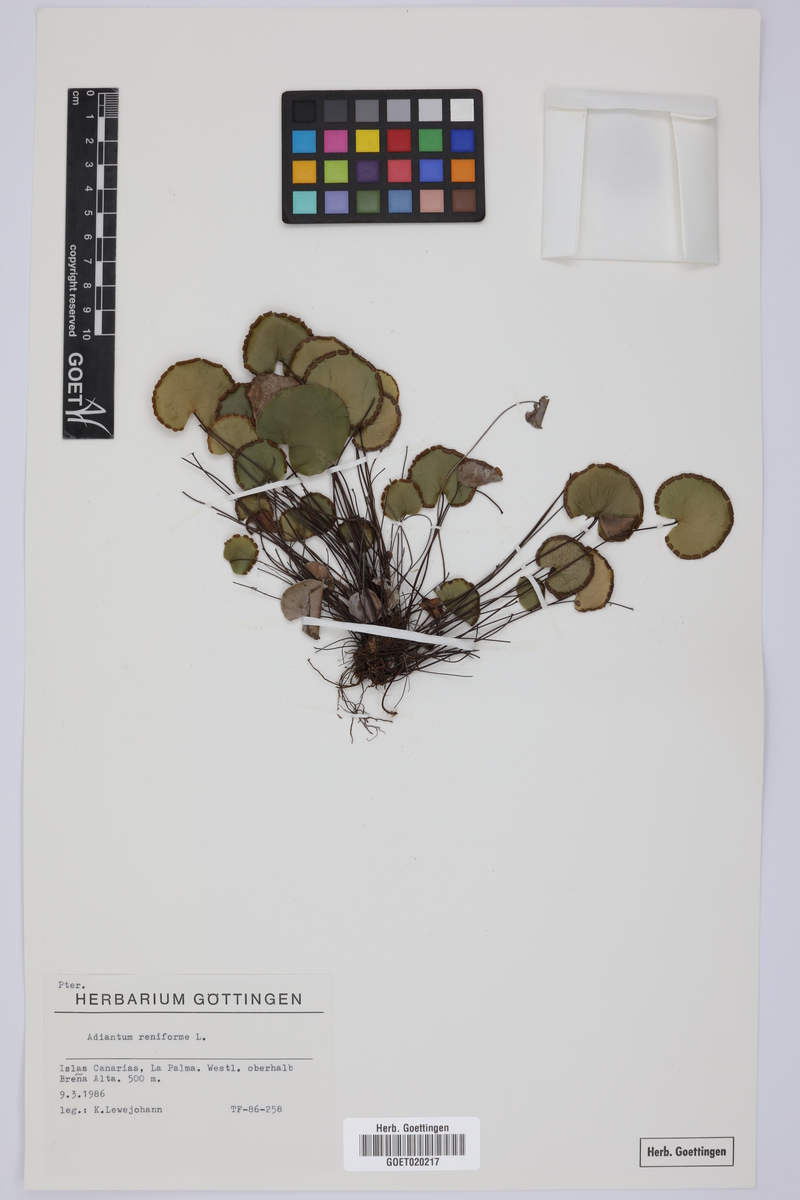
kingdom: Plantae
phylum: Tracheophyta
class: Polypodiopsida
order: Polypodiales
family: Pteridaceae
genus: Adiantum
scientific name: Adiantum reniforme
